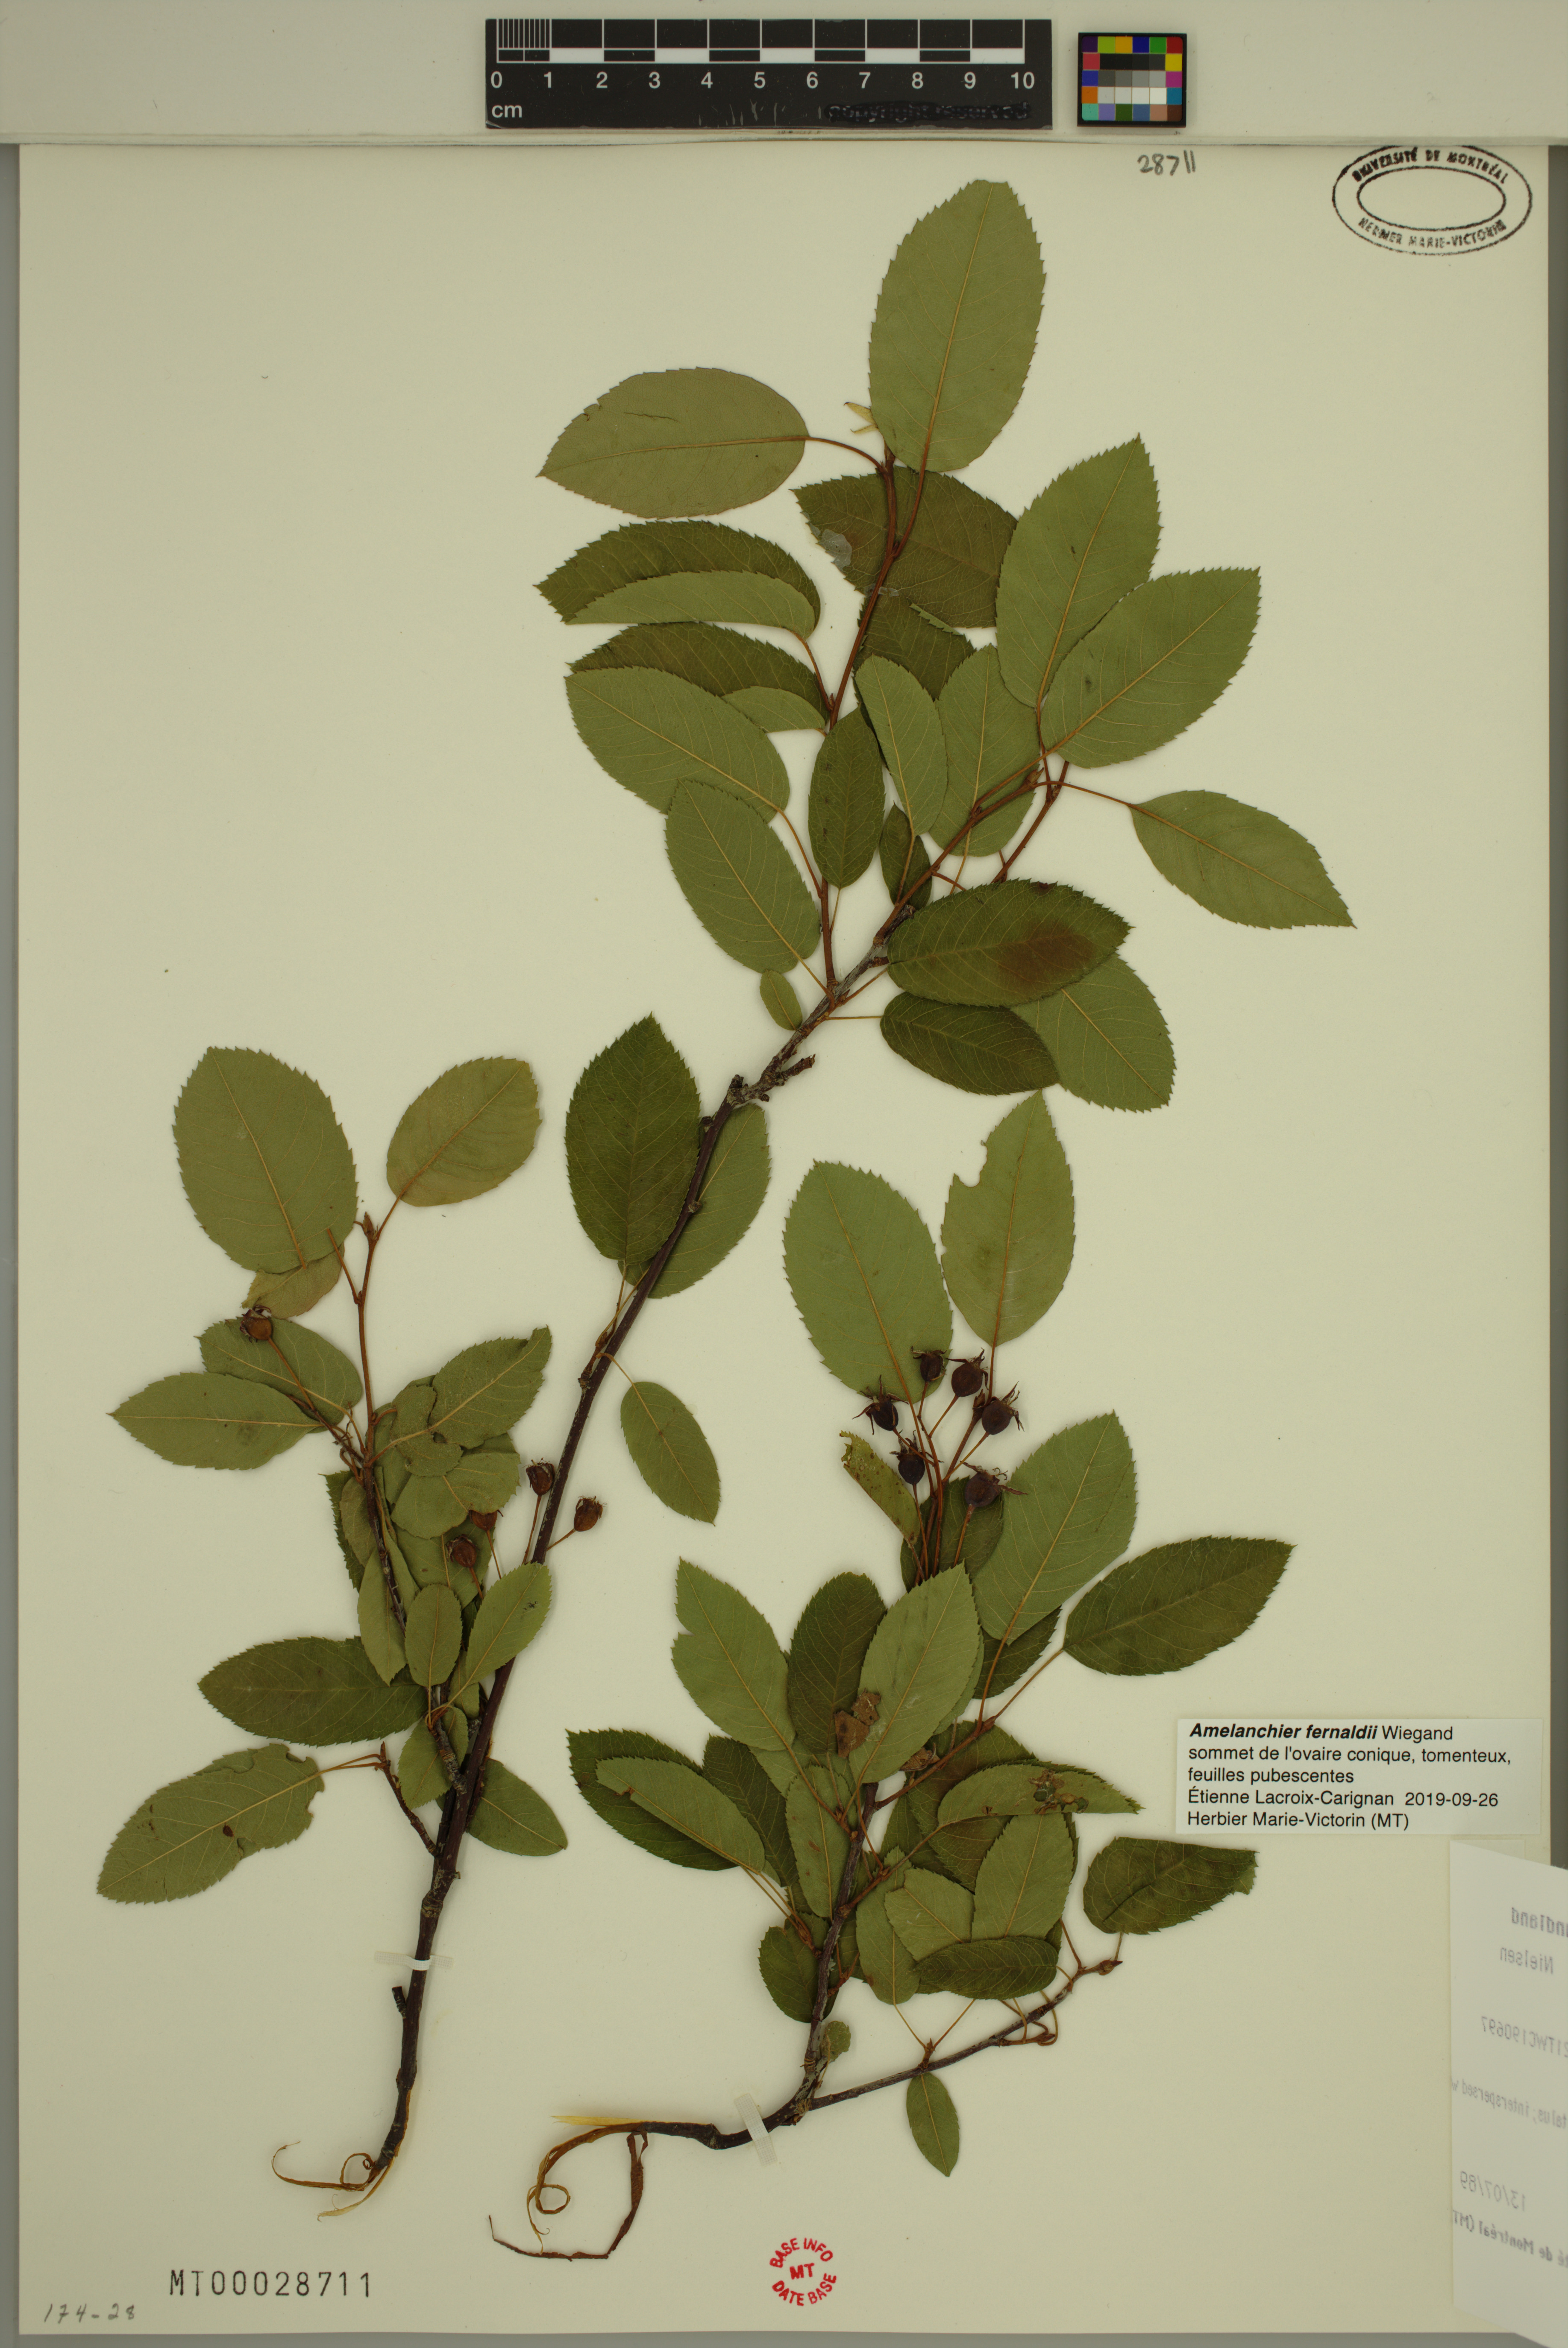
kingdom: Plantae
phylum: Tracheophyta
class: Magnoliopsida
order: Rosales
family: Rosaceae
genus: Amelanchier
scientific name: Amelanchier canadensis
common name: Thicket serviceberry
